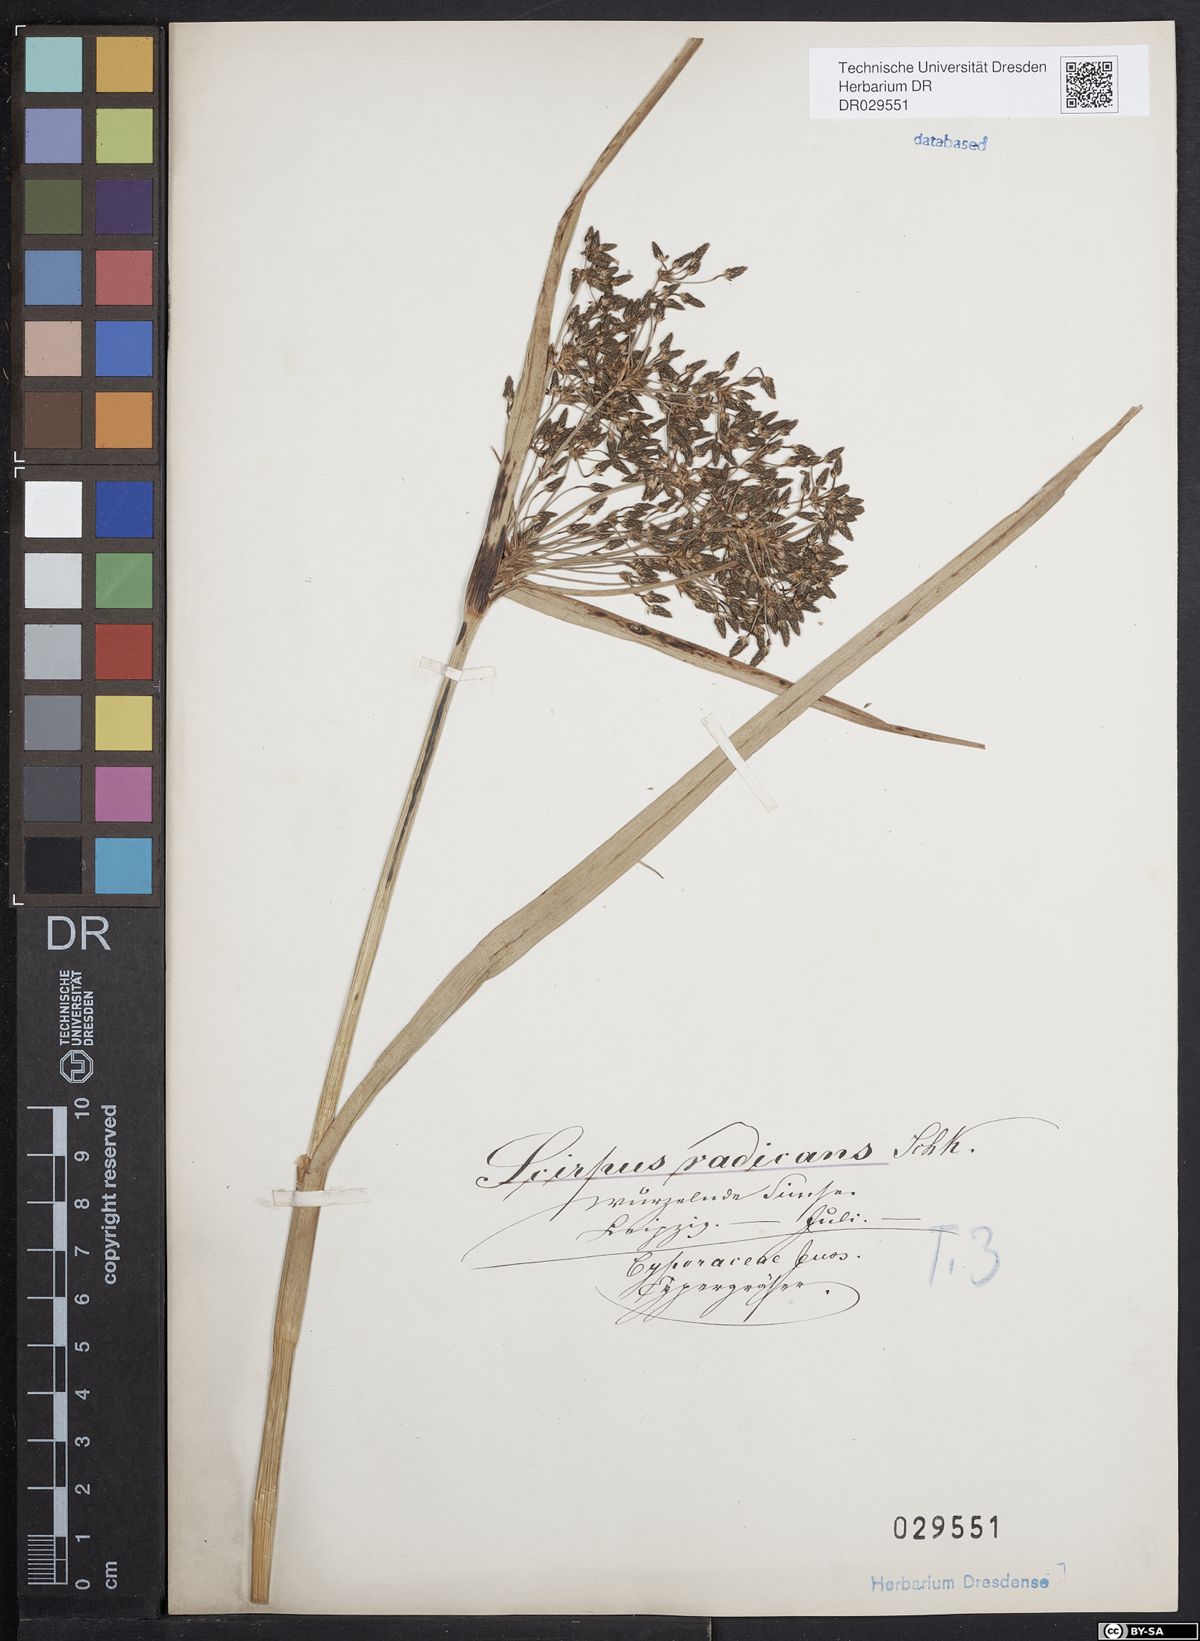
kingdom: Plantae
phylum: Tracheophyta
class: Liliopsida
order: Poales
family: Cyperaceae
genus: Scirpus
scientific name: Scirpus radicans
